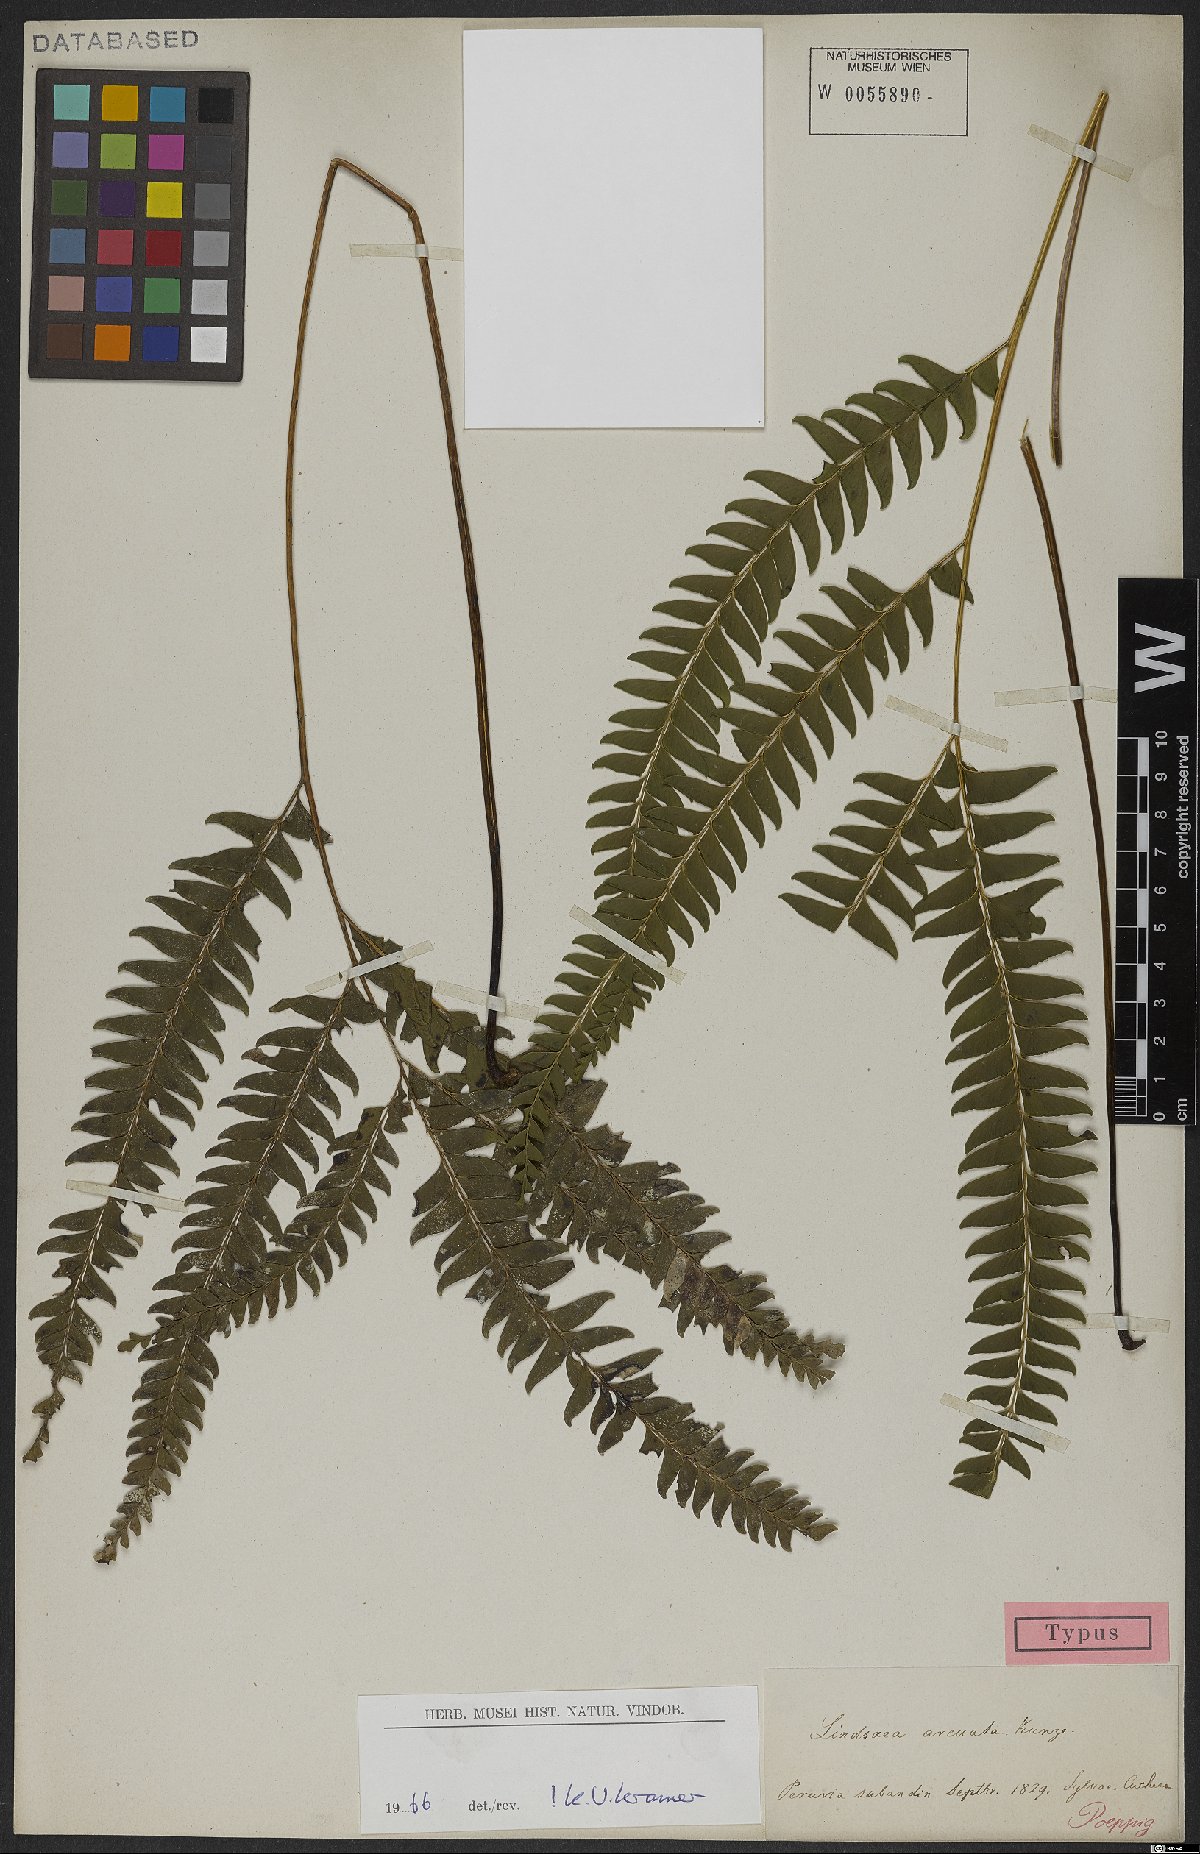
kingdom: Plantae
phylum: Tracheophyta
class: Polypodiopsida
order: Polypodiales
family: Lindsaeaceae
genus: Lindsaea
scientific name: Lindsaea arcuata
